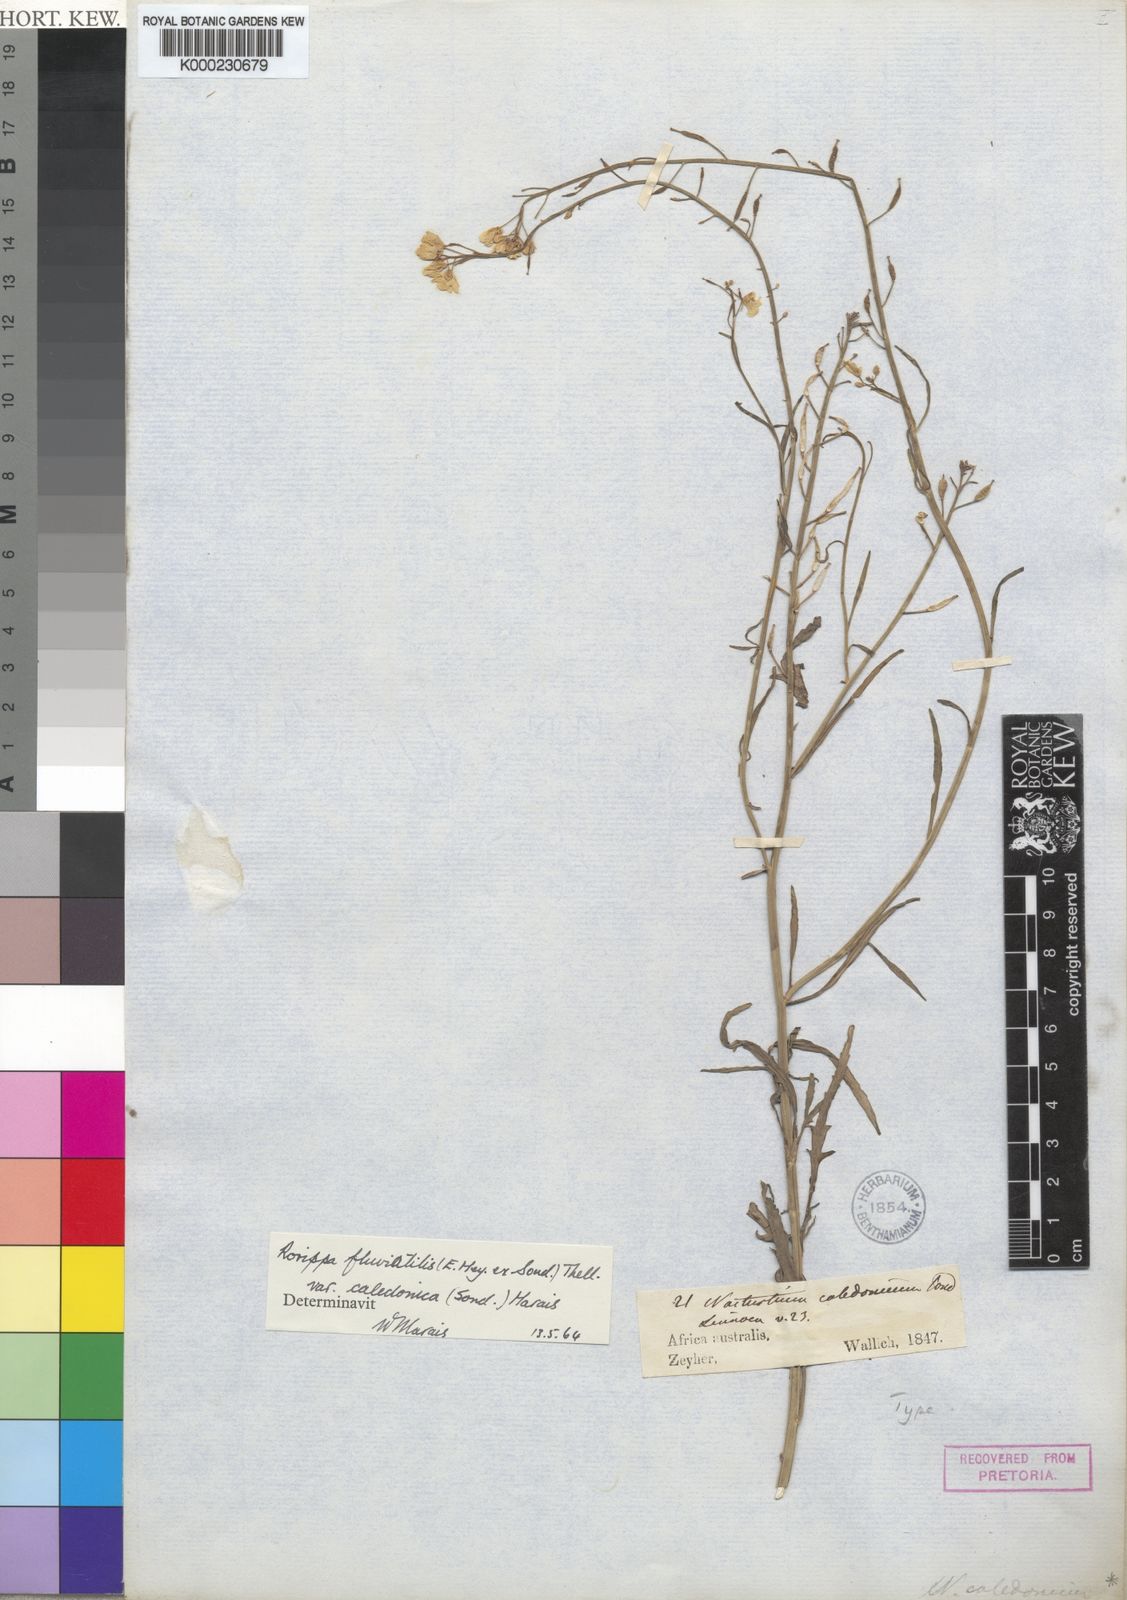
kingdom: Plantae
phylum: Tracheophyta
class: Magnoliopsida
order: Brassicales
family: Brassicaceae
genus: Rorippa
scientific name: Rorippa fluviatilis
